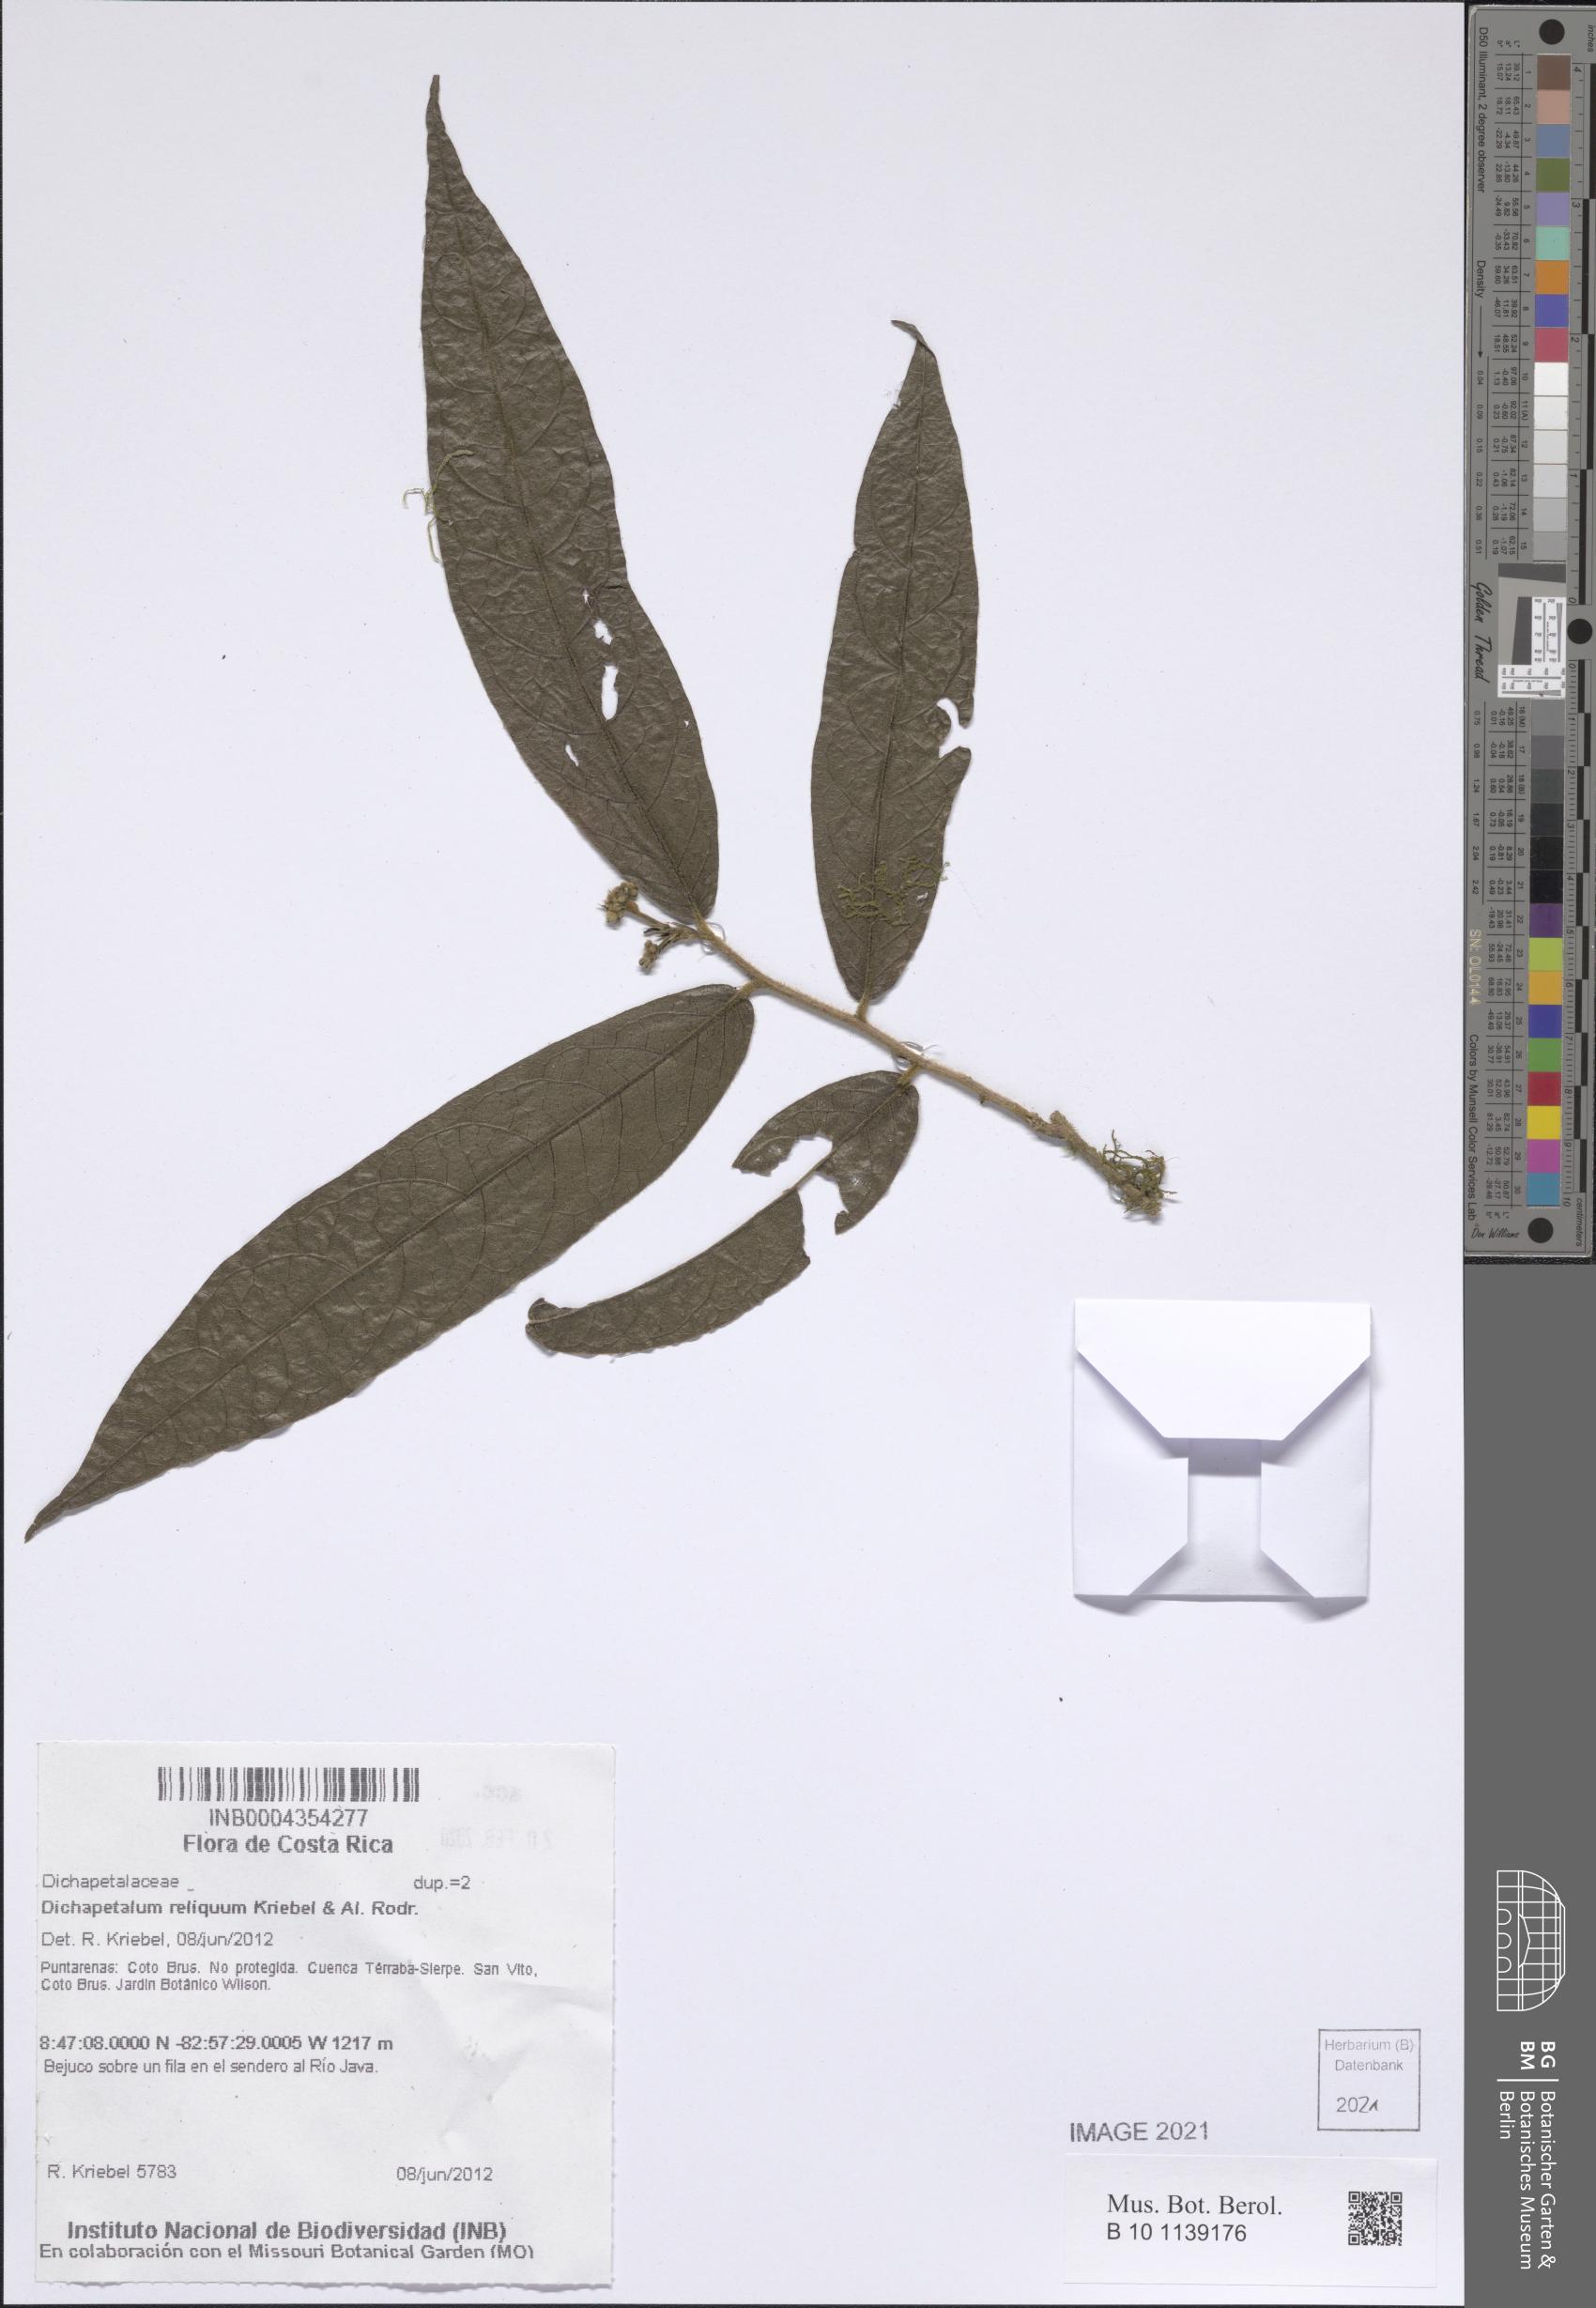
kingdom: Plantae
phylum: Tracheophyta
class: Magnoliopsida
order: Malpighiales
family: Dichapetalaceae
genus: Dichapetalum
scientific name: Dichapetalum reliquum
